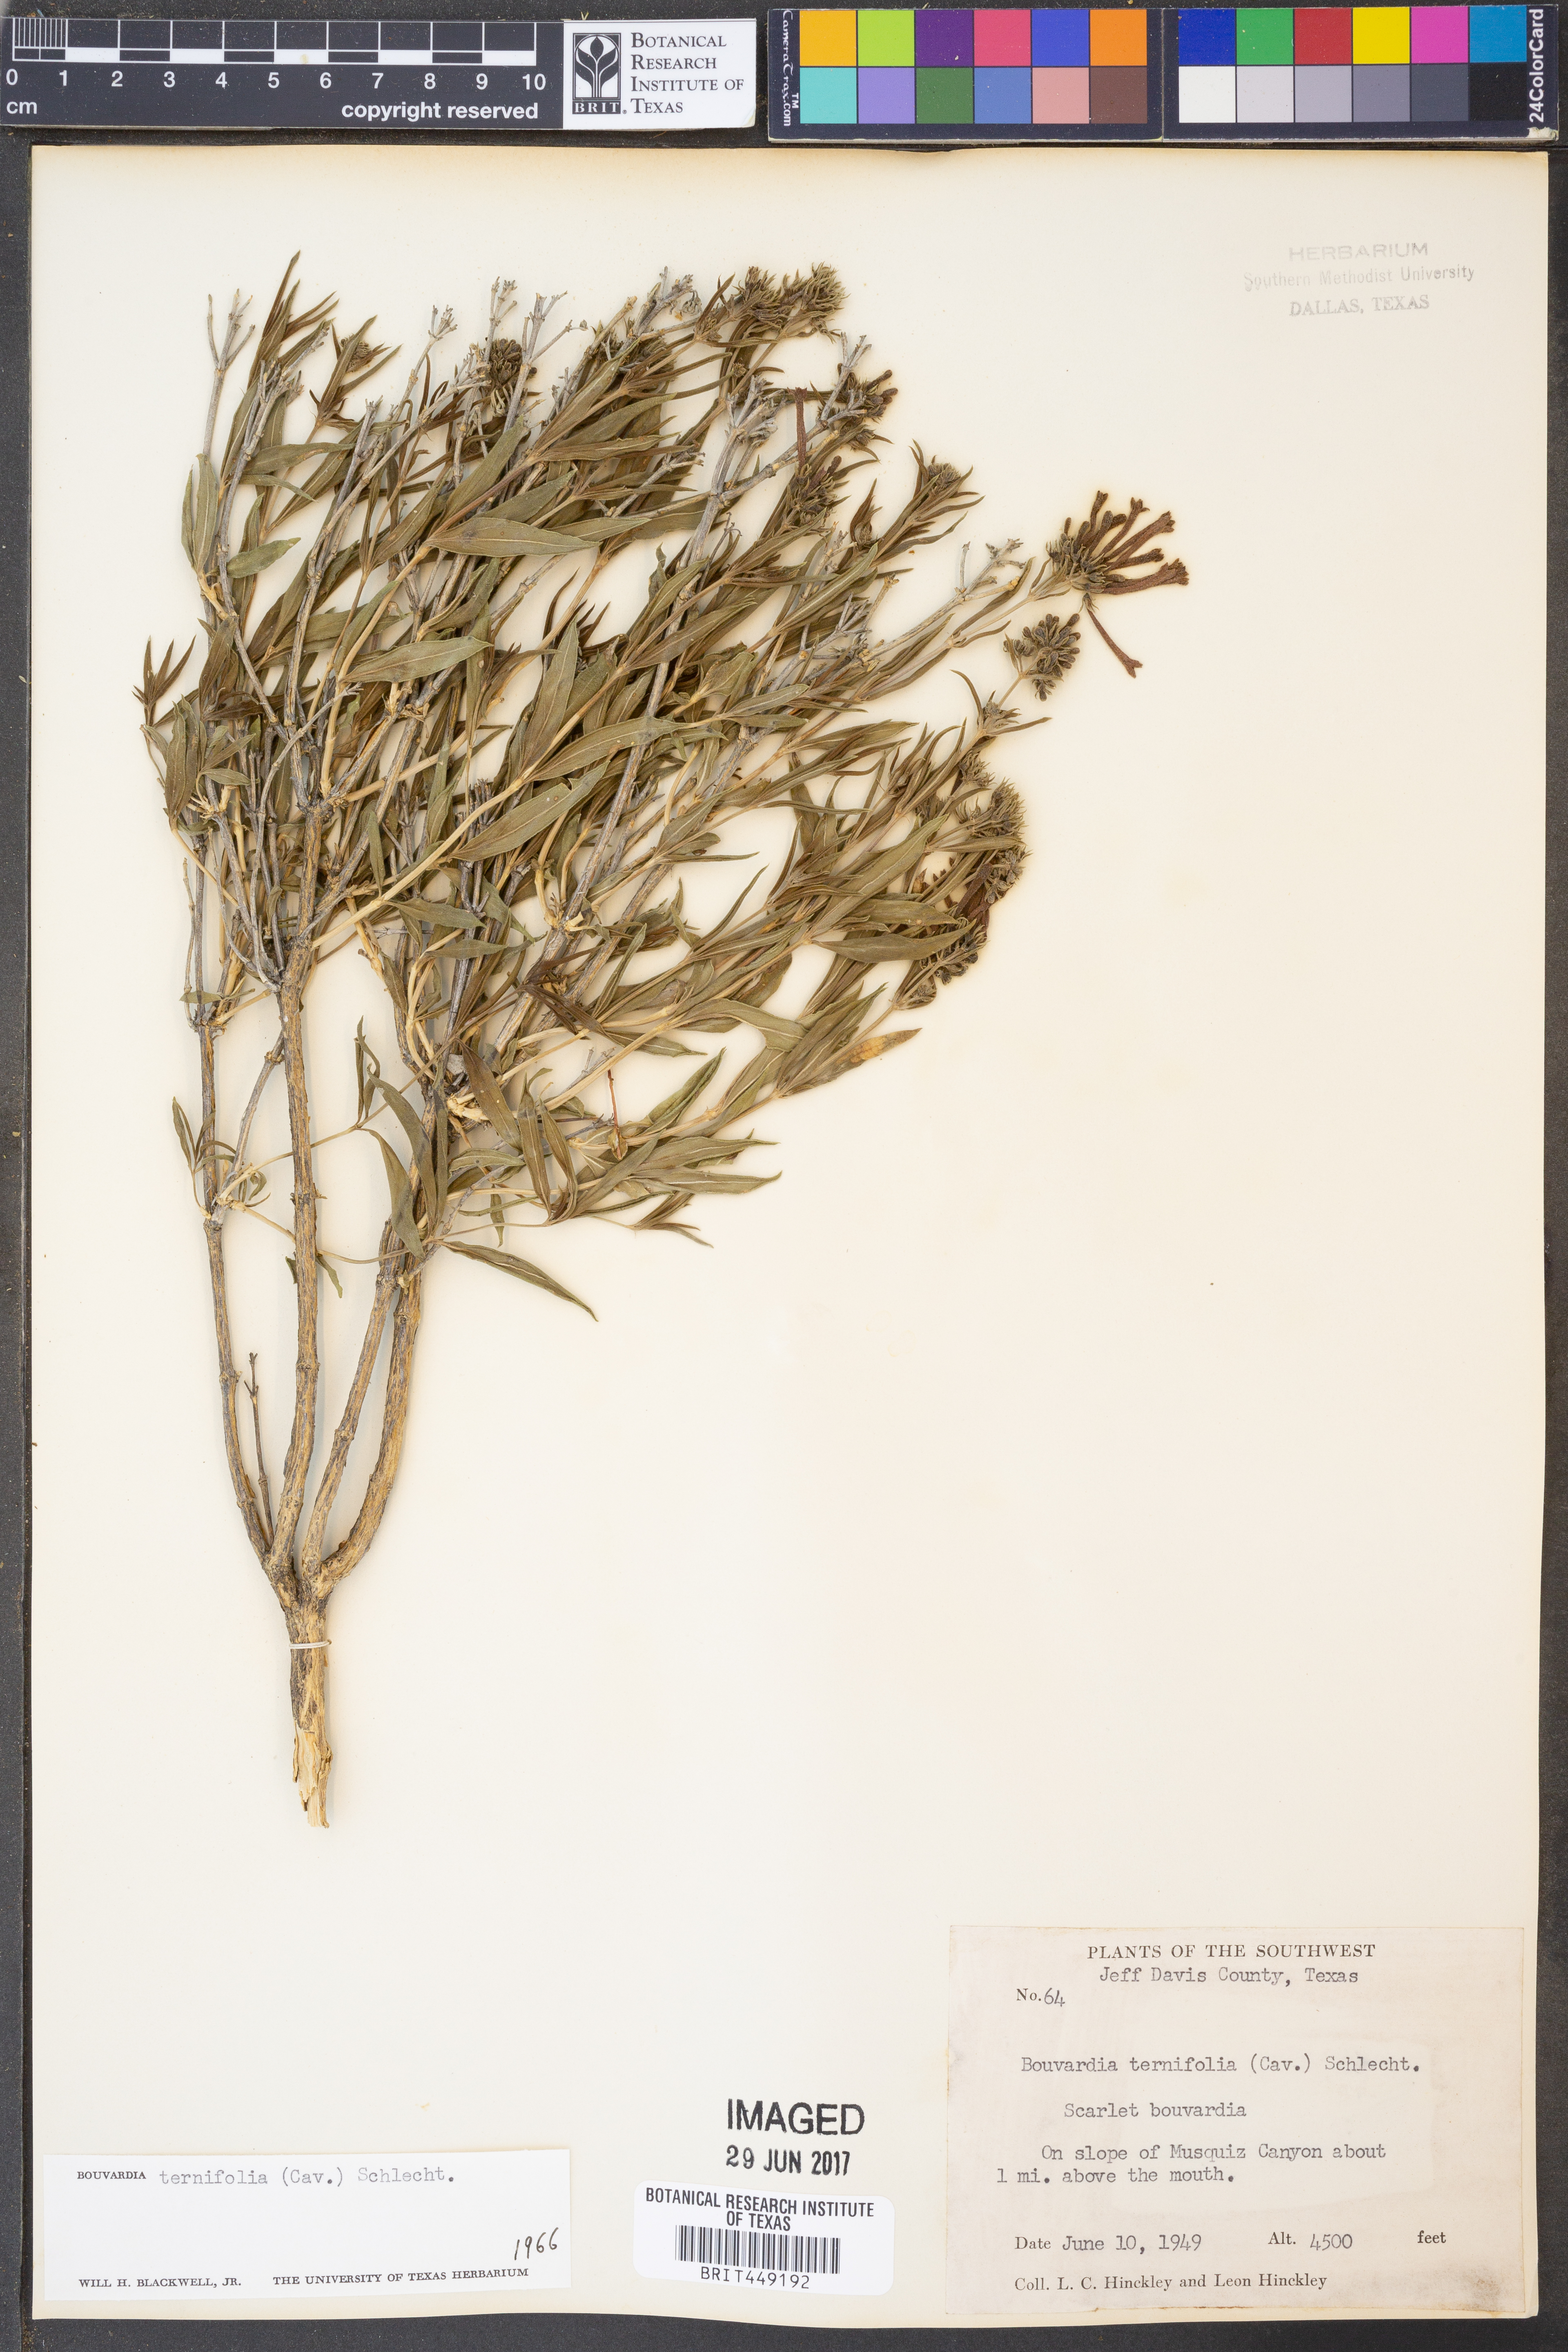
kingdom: Plantae
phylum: Tracheophyta
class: Magnoliopsida
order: Gentianales
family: Rubiaceae
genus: Bouvardia
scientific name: Bouvardia ternifolia
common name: Scarlet bouvardia
